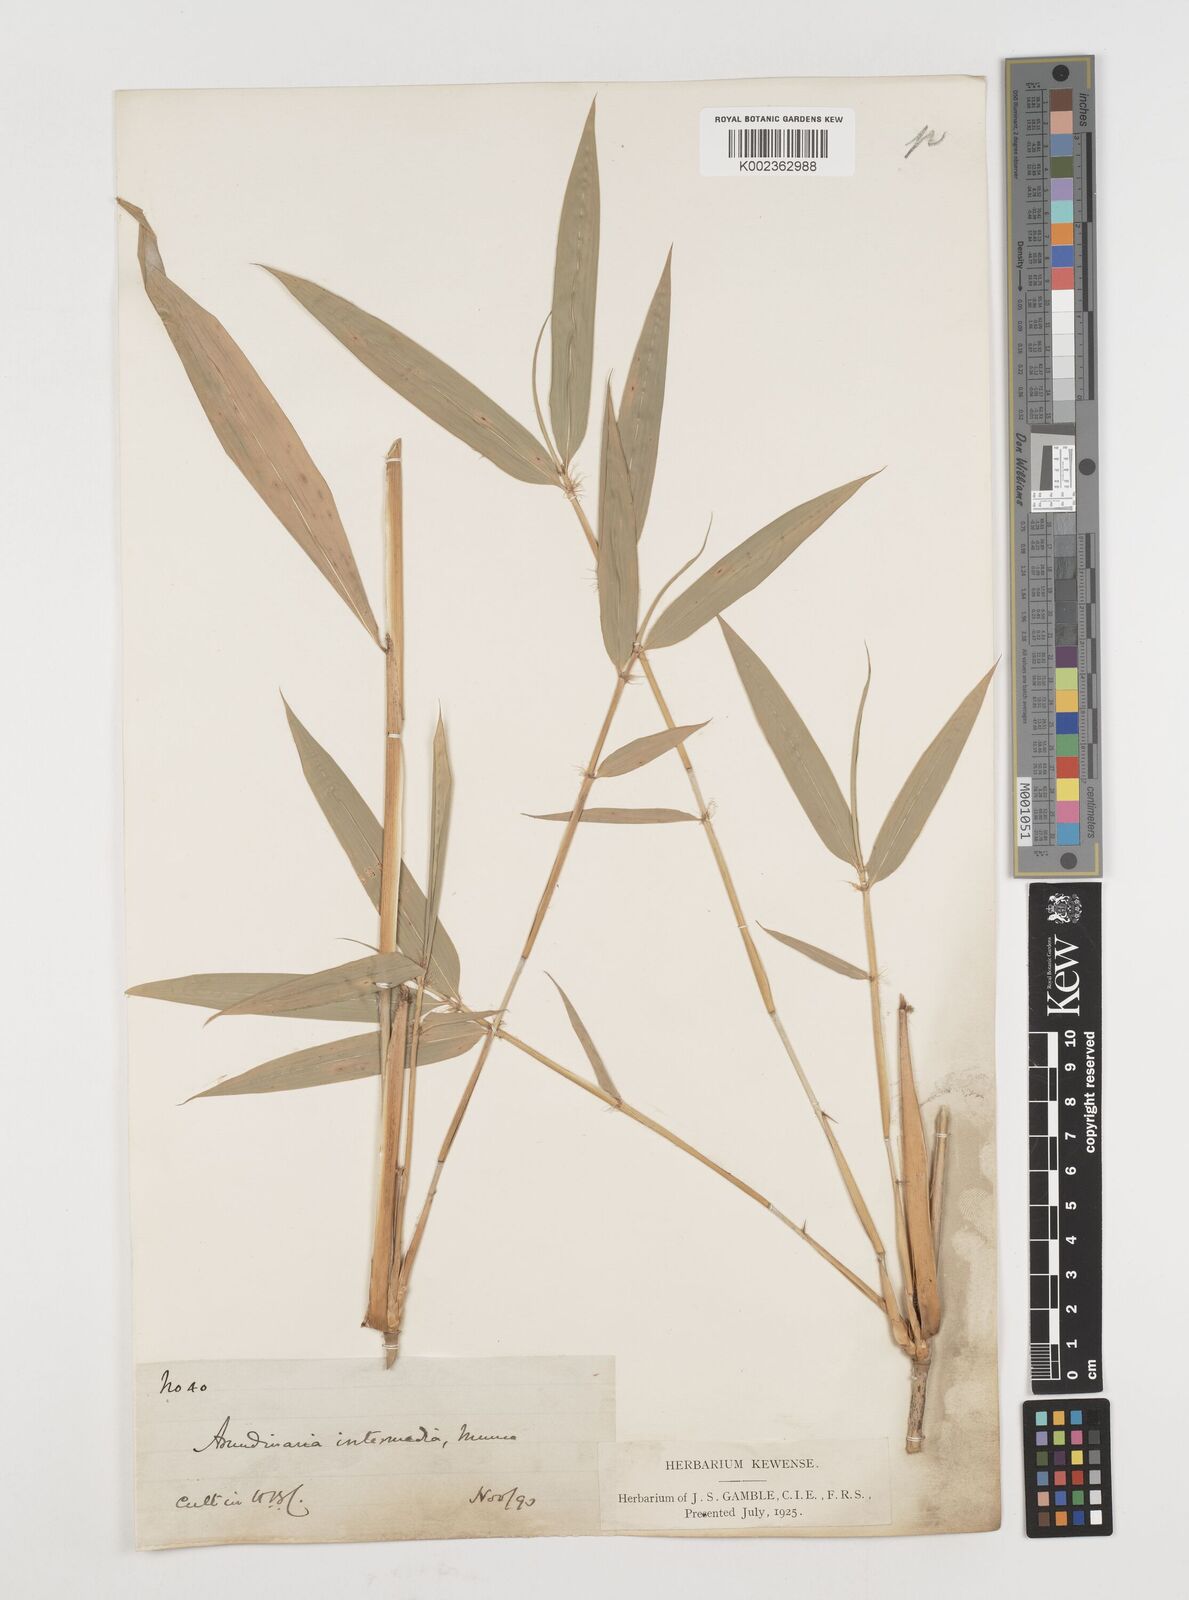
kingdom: Plantae
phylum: Tracheophyta
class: Liliopsida
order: Poales
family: Poaceae
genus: Drepanostachyum
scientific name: Drepanostachyum intermedium
